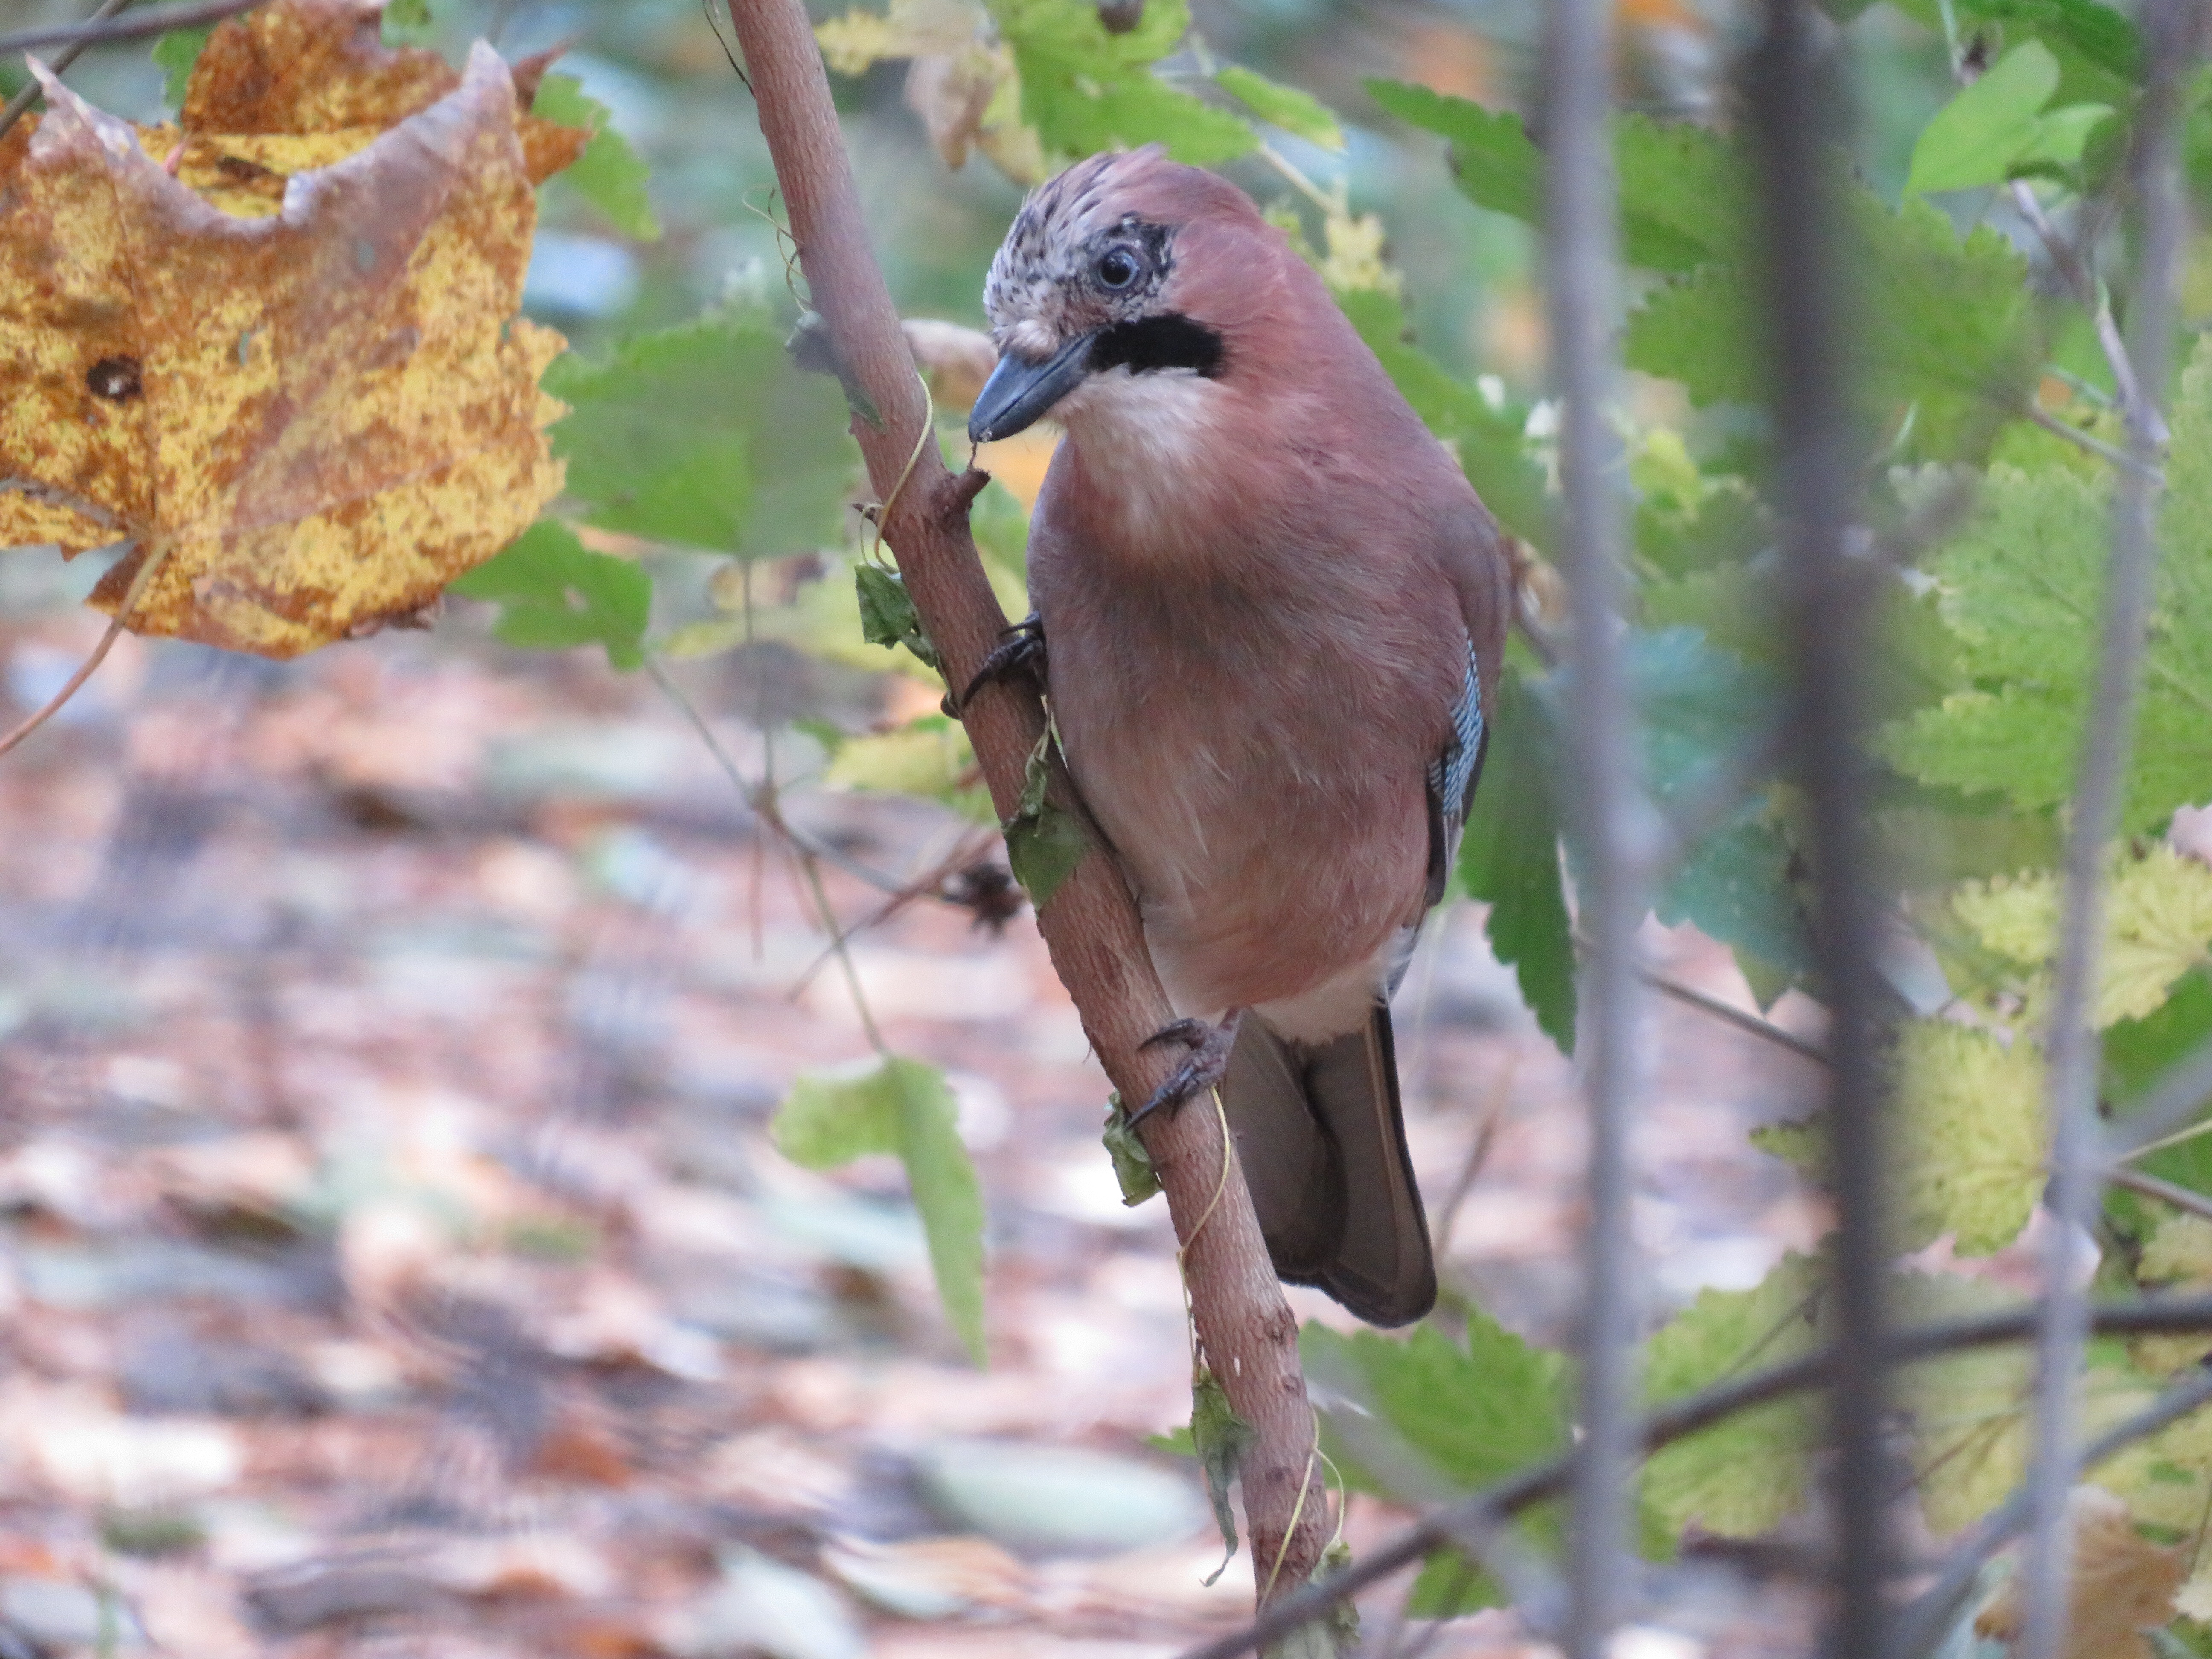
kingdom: Animalia
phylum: Chordata
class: Aves
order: Passeriformes
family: Corvidae
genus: Garrulus
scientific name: Garrulus glandarius
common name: Eurasian jay
